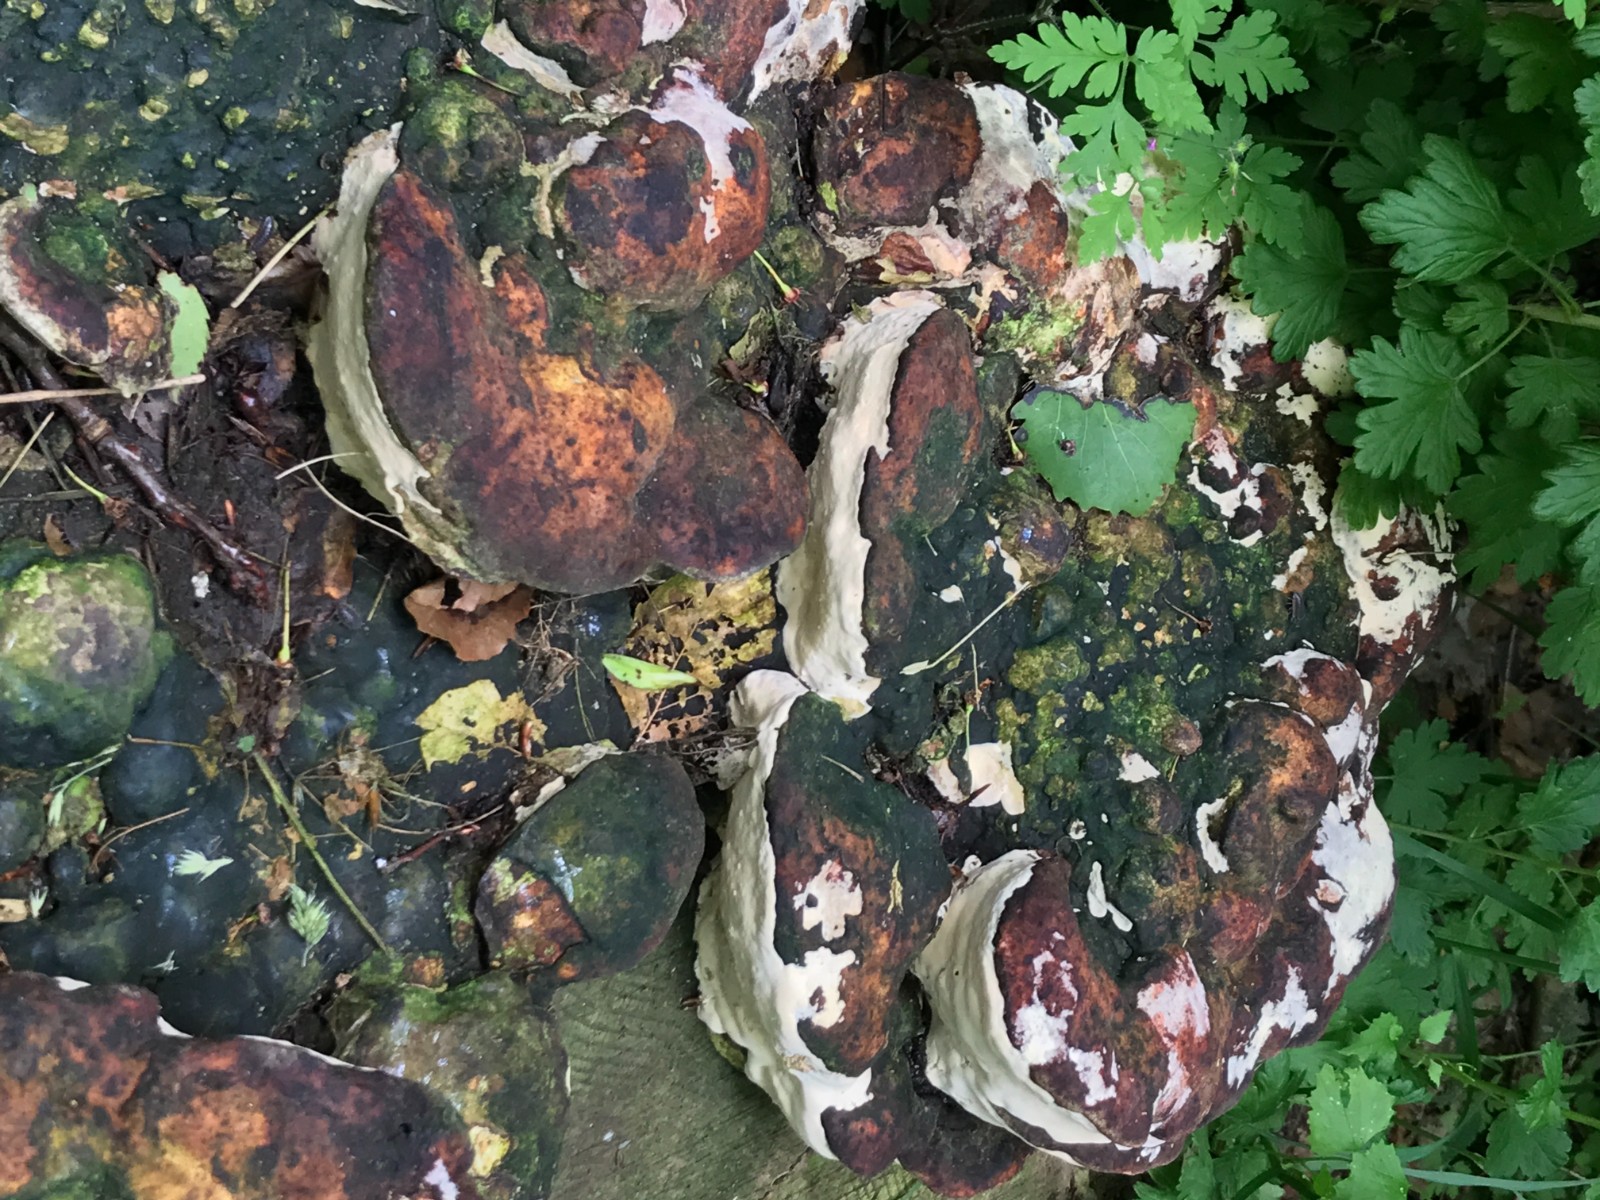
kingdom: Fungi
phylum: Basidiomycota
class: Agaricomycetes
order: Polyporales
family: Polyporaceae
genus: Vanderbylia
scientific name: Vanderbylia fraxinea
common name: stor kanelporesvamp
